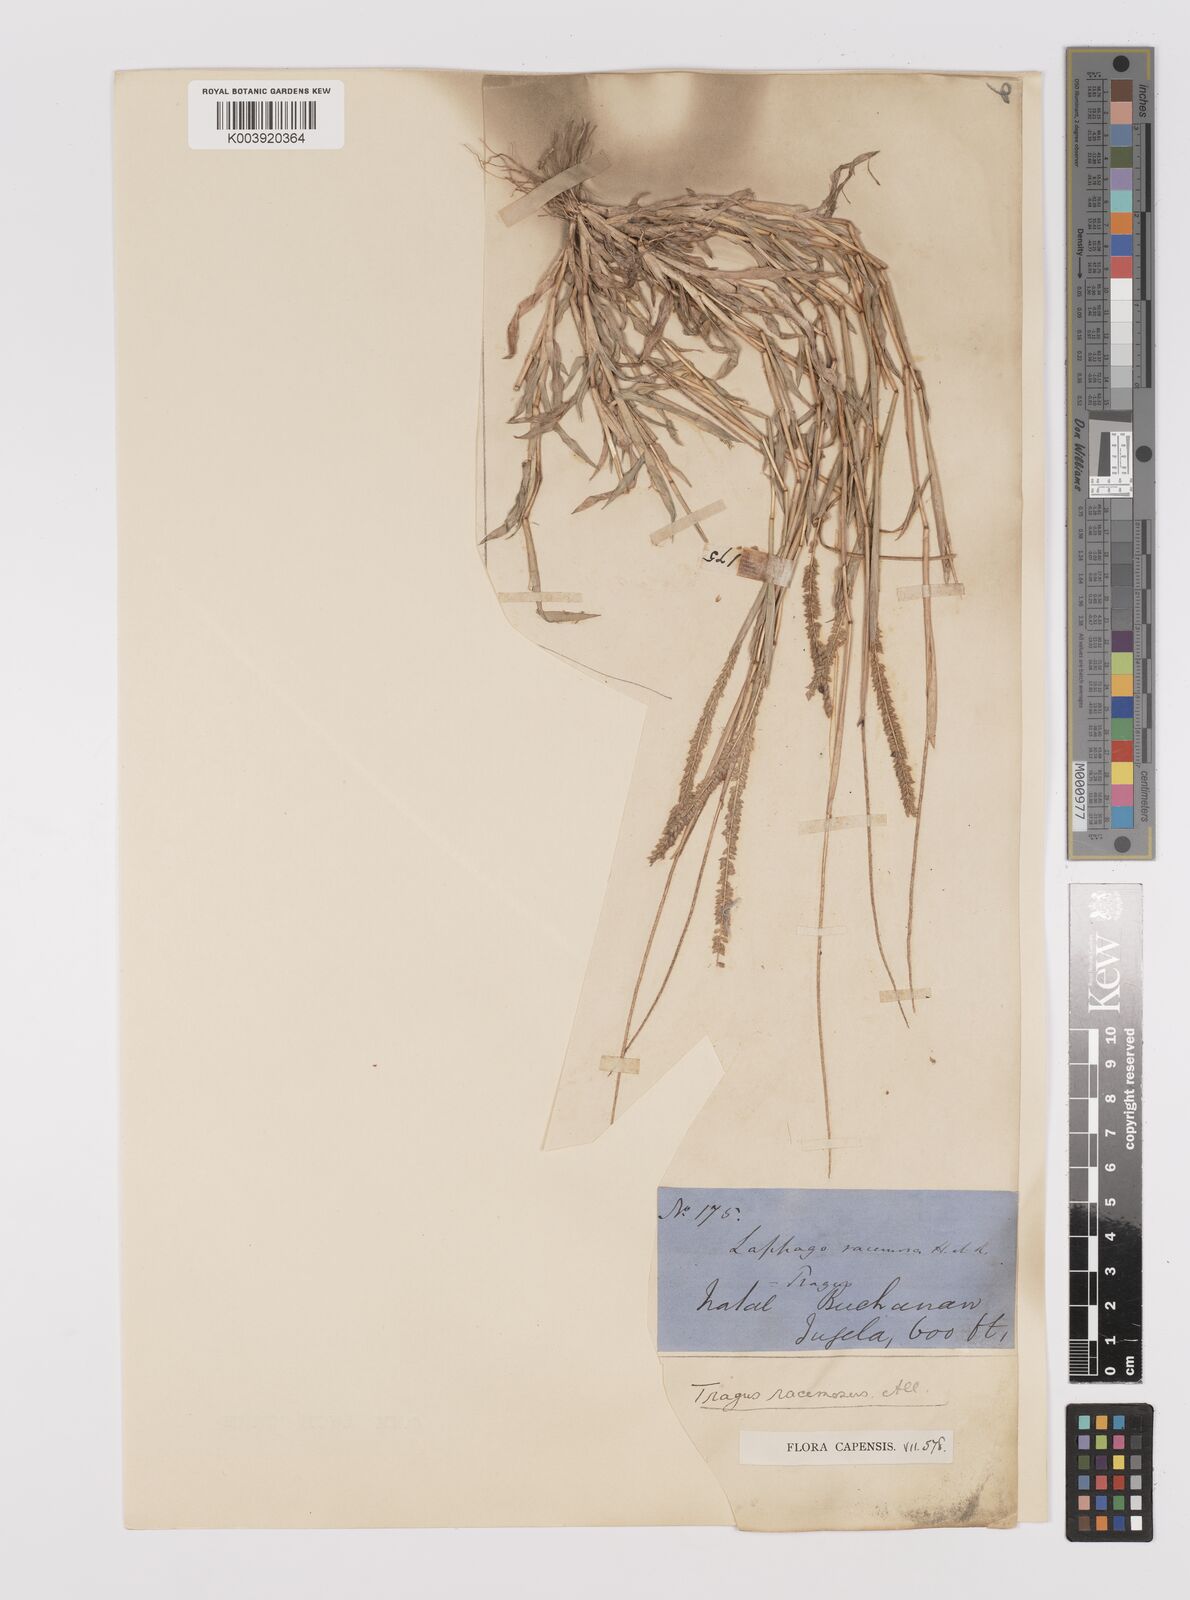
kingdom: Plantae
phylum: Tracheophyta
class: Liliopsida
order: Poales
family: Poaceae
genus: Tragus
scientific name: Tragus berteronianus
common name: African bur-grass
